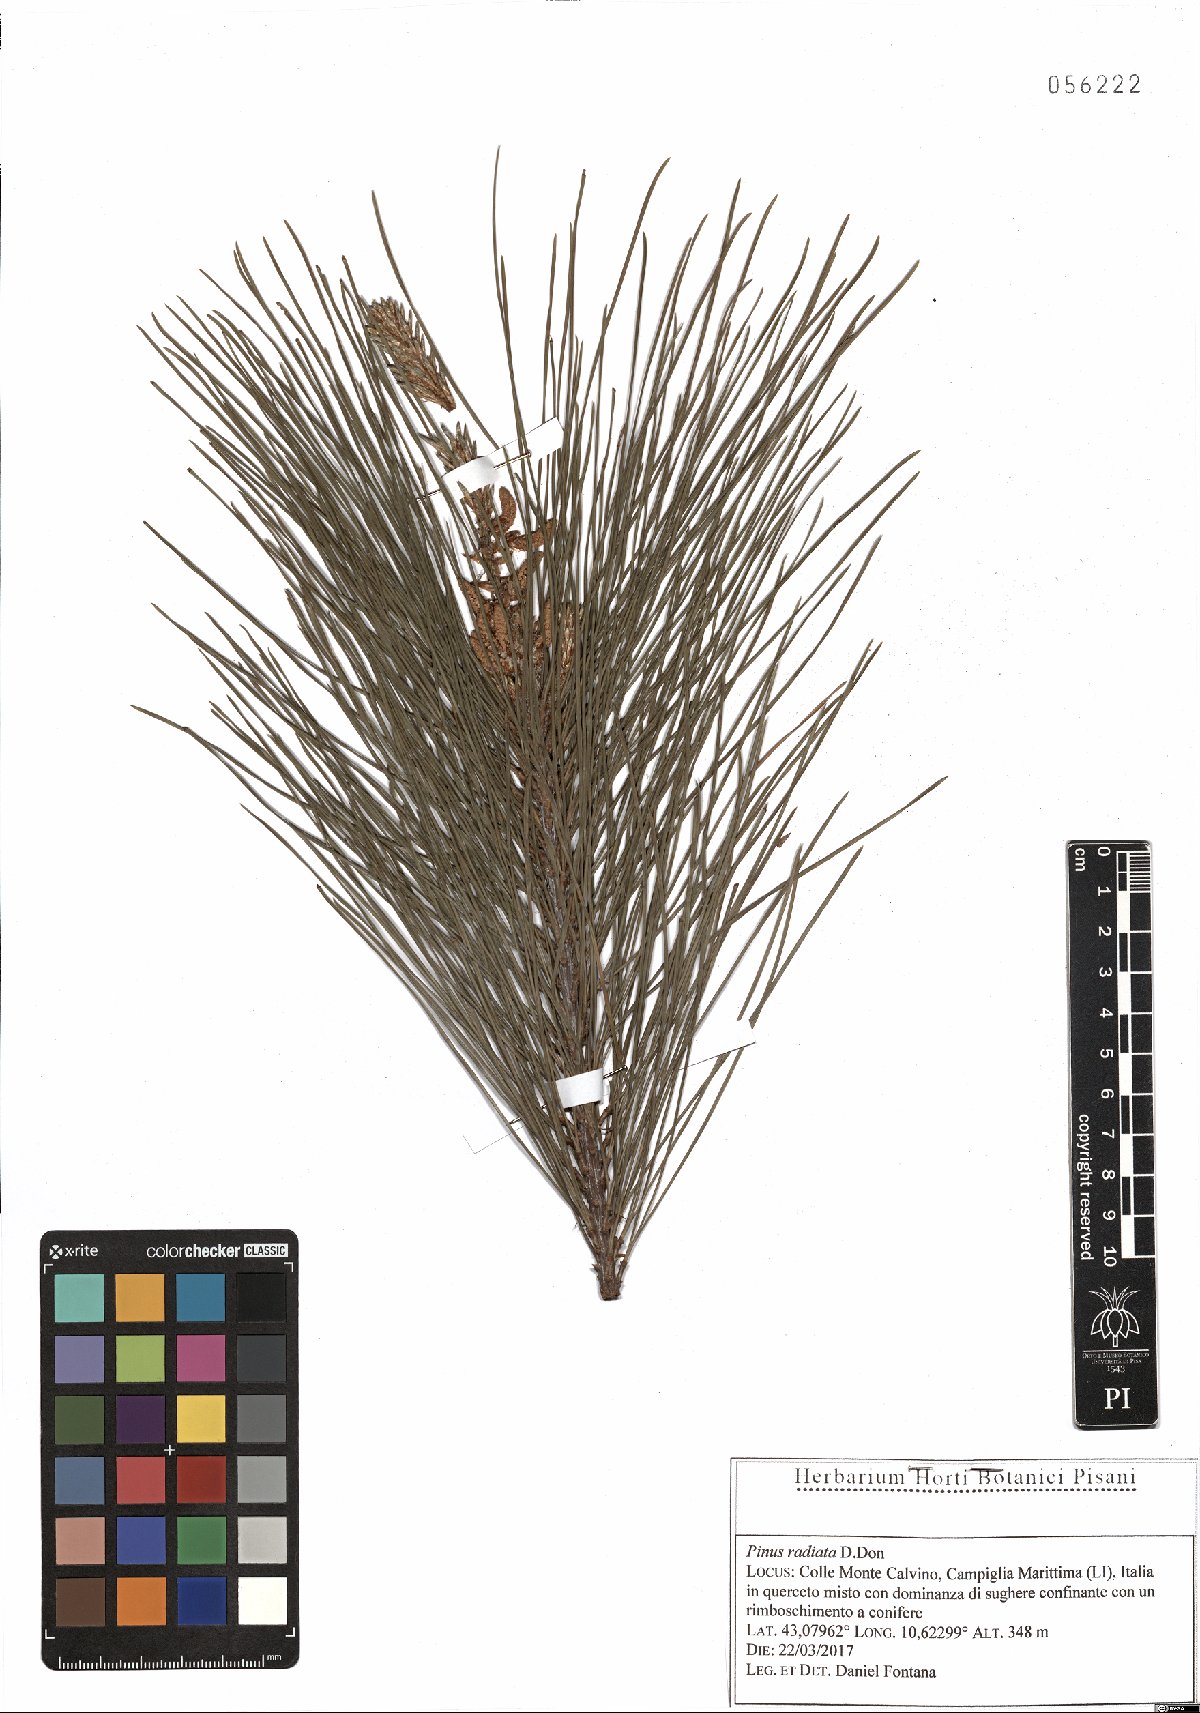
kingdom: Plantae
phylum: Tracheophyta
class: Pinopsida
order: Pinales
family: Pinaceae
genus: Pinus
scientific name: Pinus radiata
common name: Monterey pine
